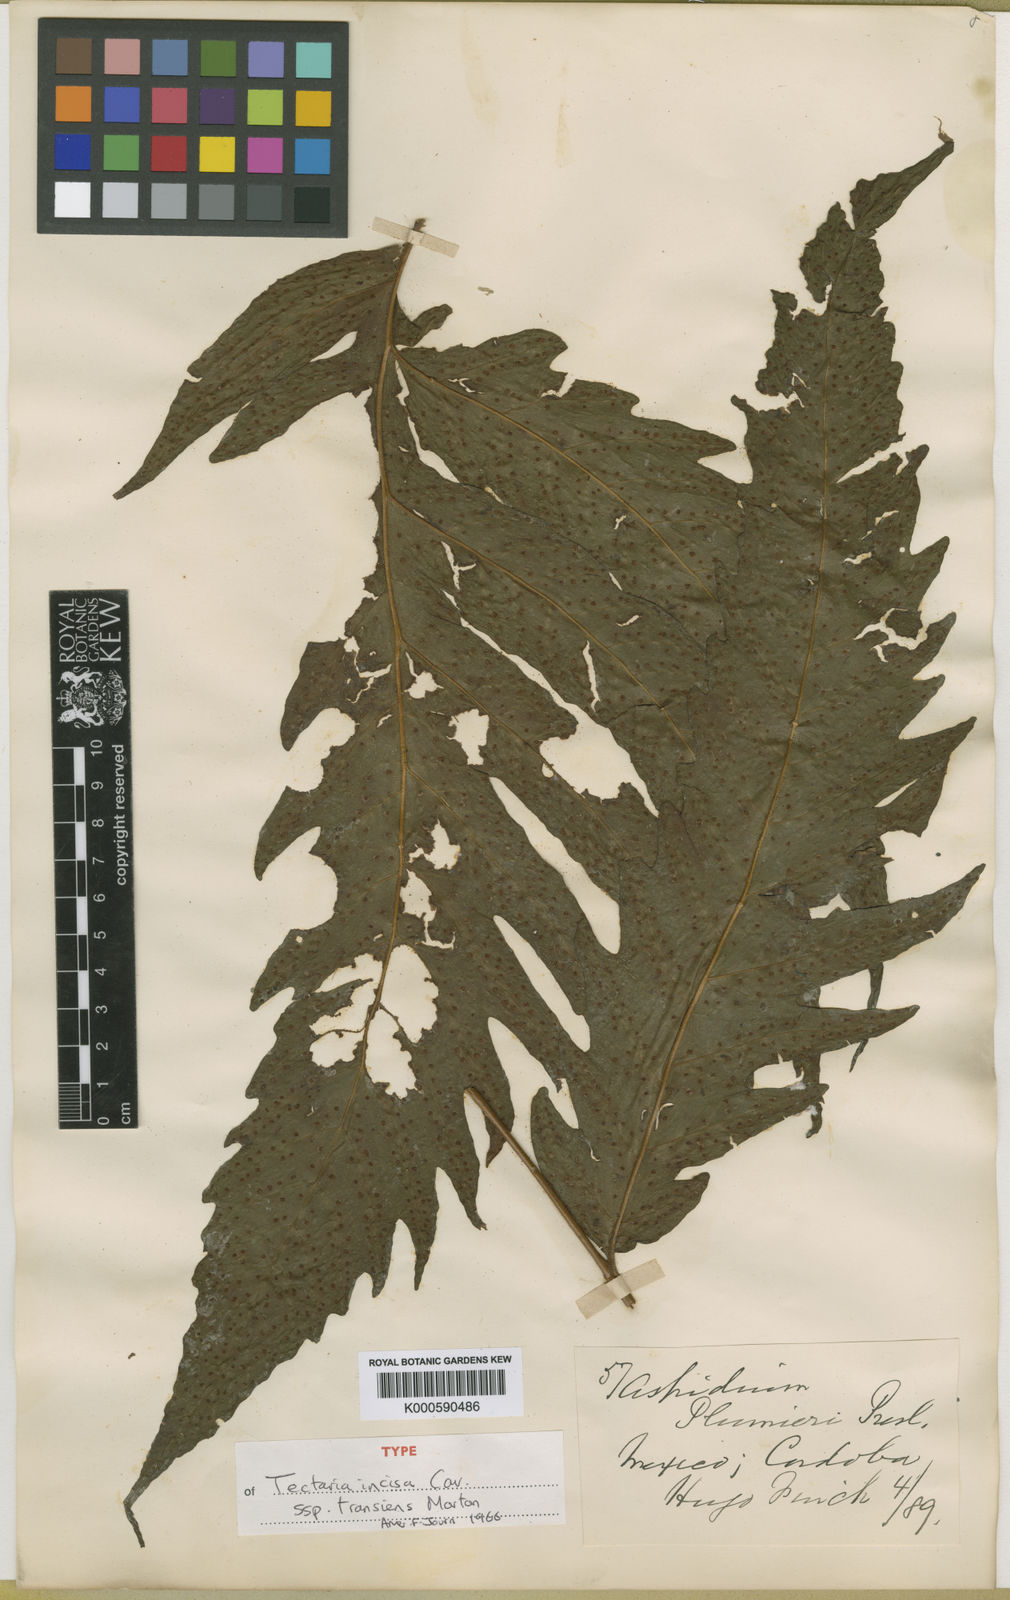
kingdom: Plantae
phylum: Tracheophyta
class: Polypodiopsida
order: Polypodiales
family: Tectariaceae
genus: Tectaria
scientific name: Tectaria incisa
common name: Incised halberd fern
